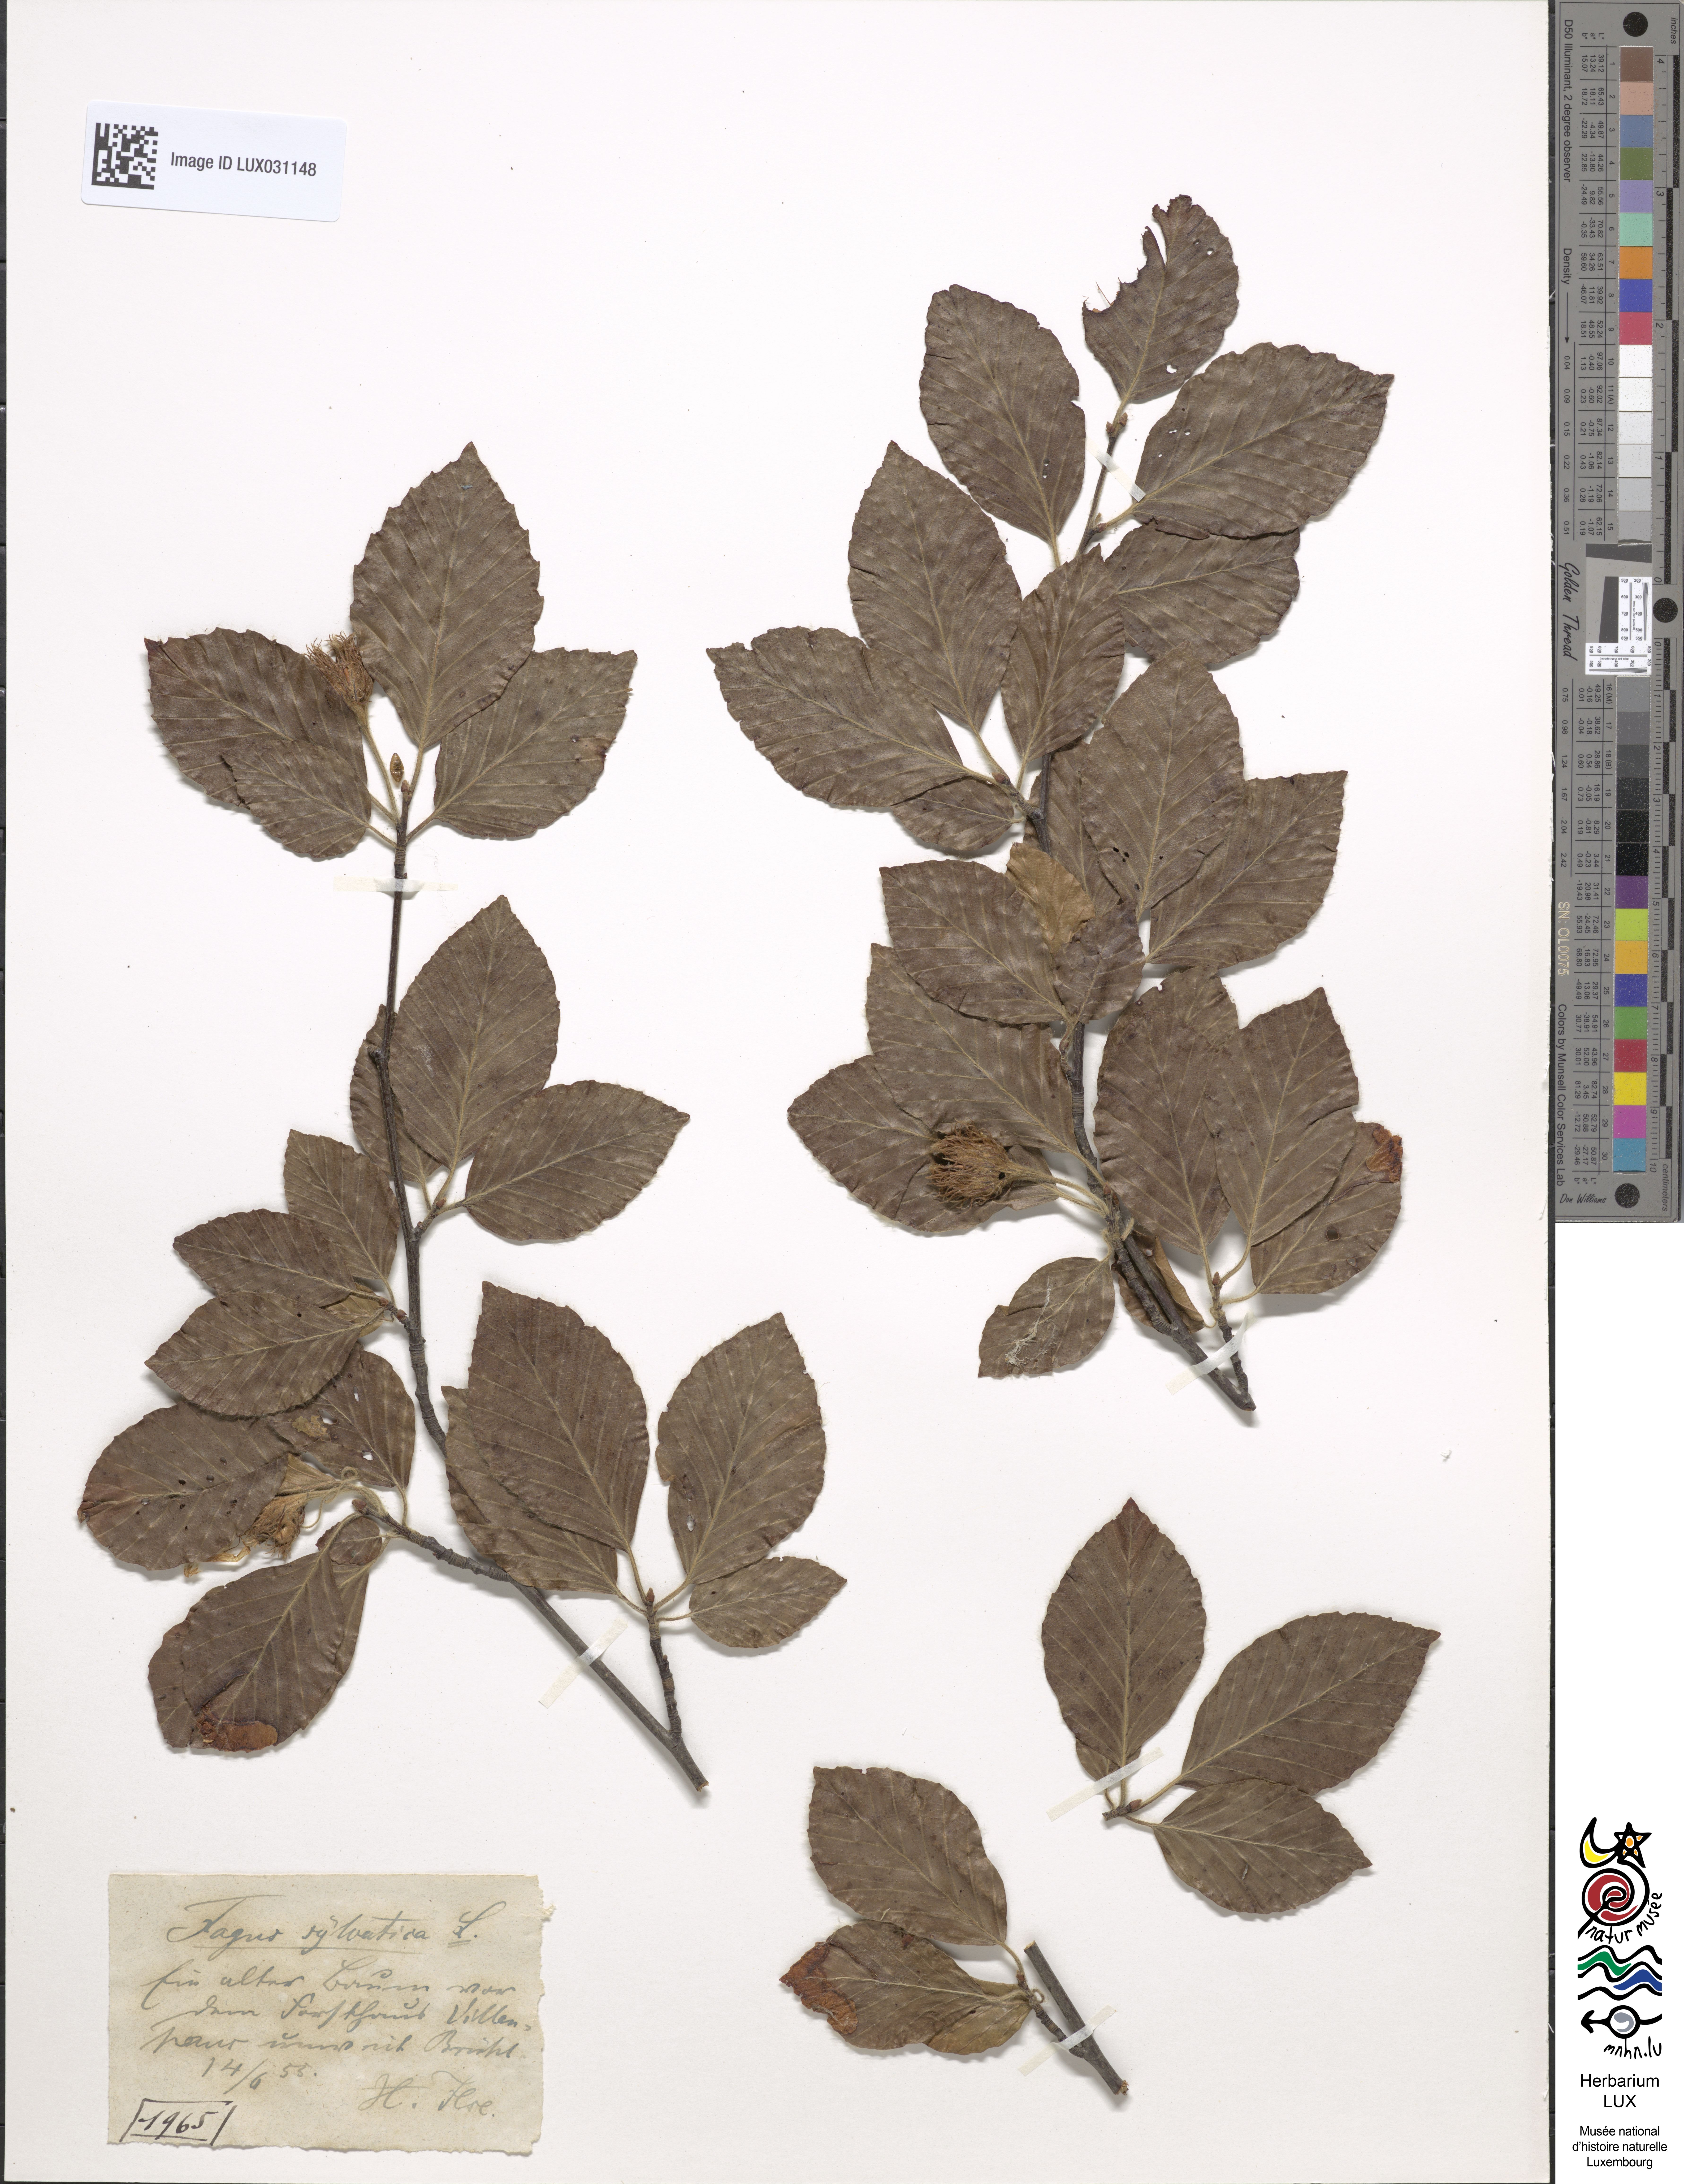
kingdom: Plantae
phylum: Tracheophyta
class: Magnoliopsida
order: Fagales
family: Fagaceae
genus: Fagus
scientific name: Fagus sylvatica
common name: Beech
